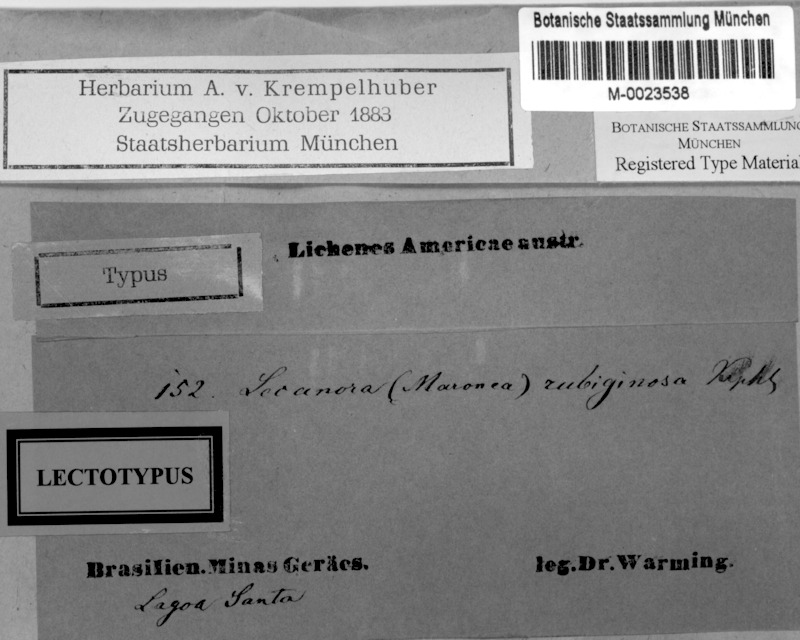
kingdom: Fungi
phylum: Ascomycota
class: Lecanoromycetes
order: Umbilicariales
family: Fuscideaceae
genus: Maronea
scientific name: Maronea rubiginosa
